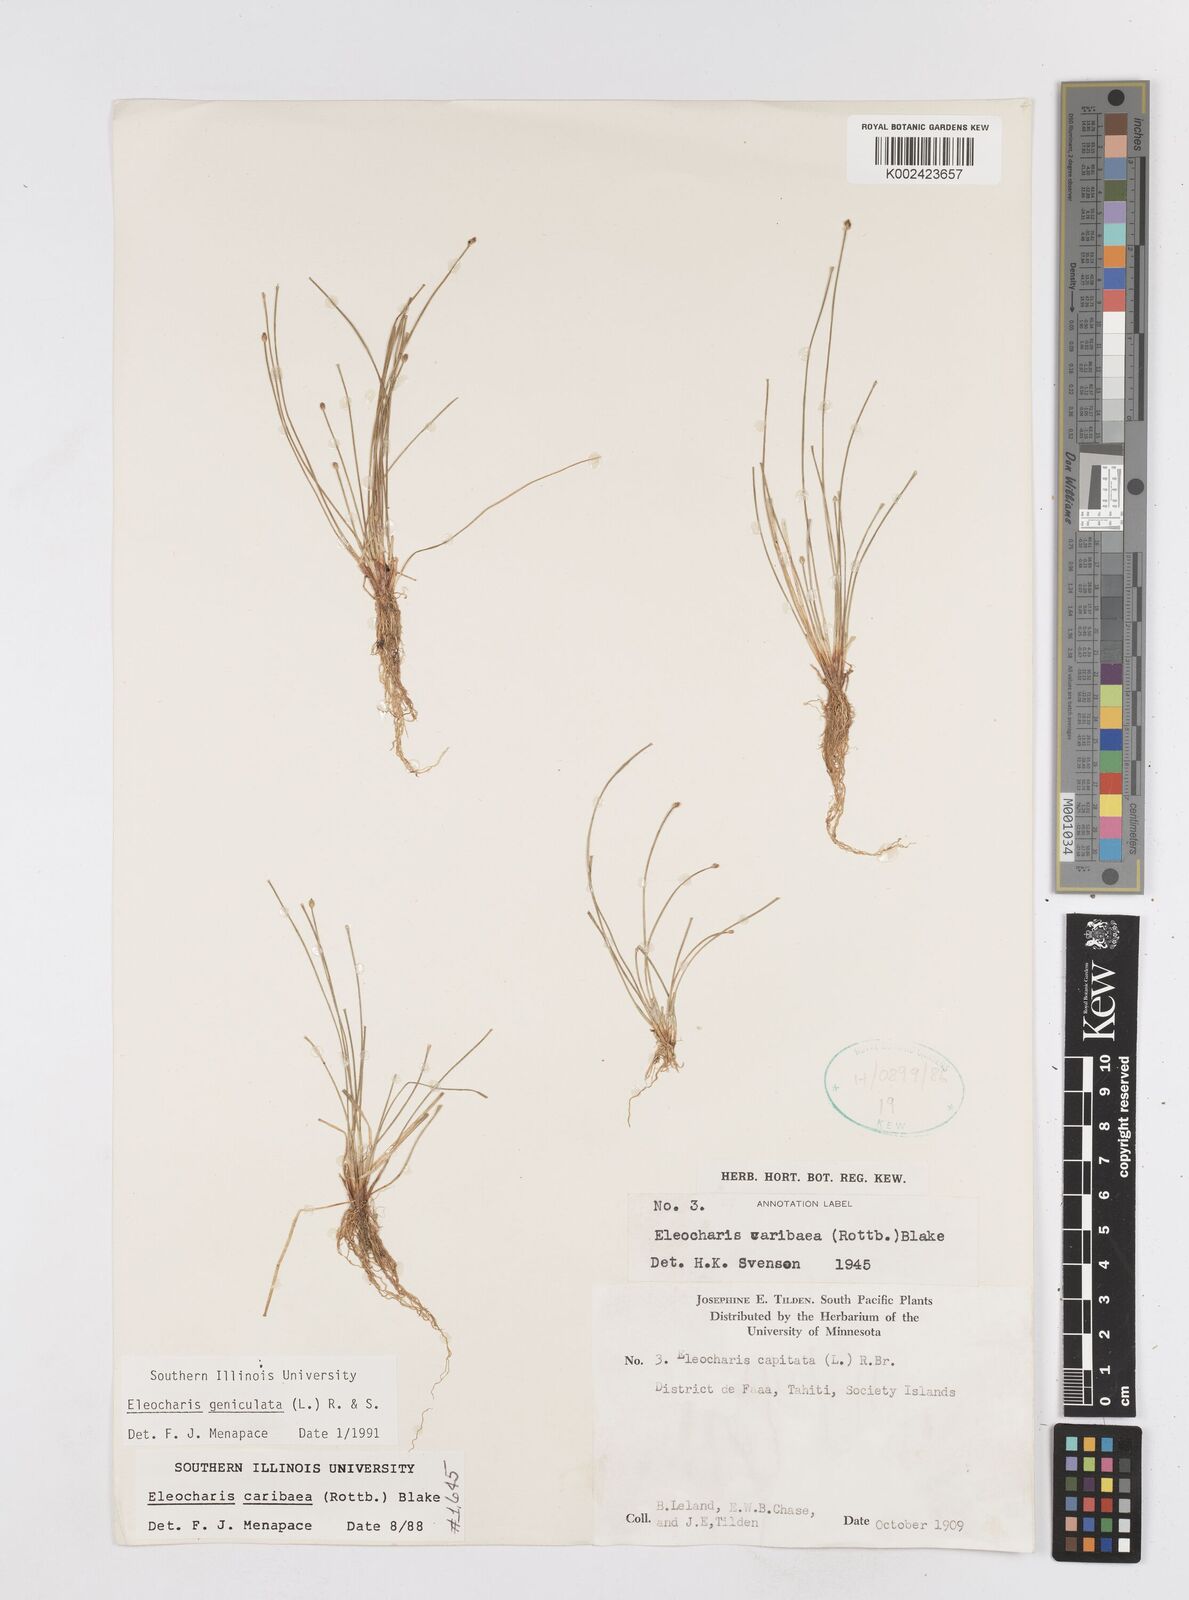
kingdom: Plantae
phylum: Tracheophyta
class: Liliopsida
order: Poales
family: Cyperaceae
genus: Eleocharis
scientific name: Eleocharis macrostachya
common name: Pale spikerush
